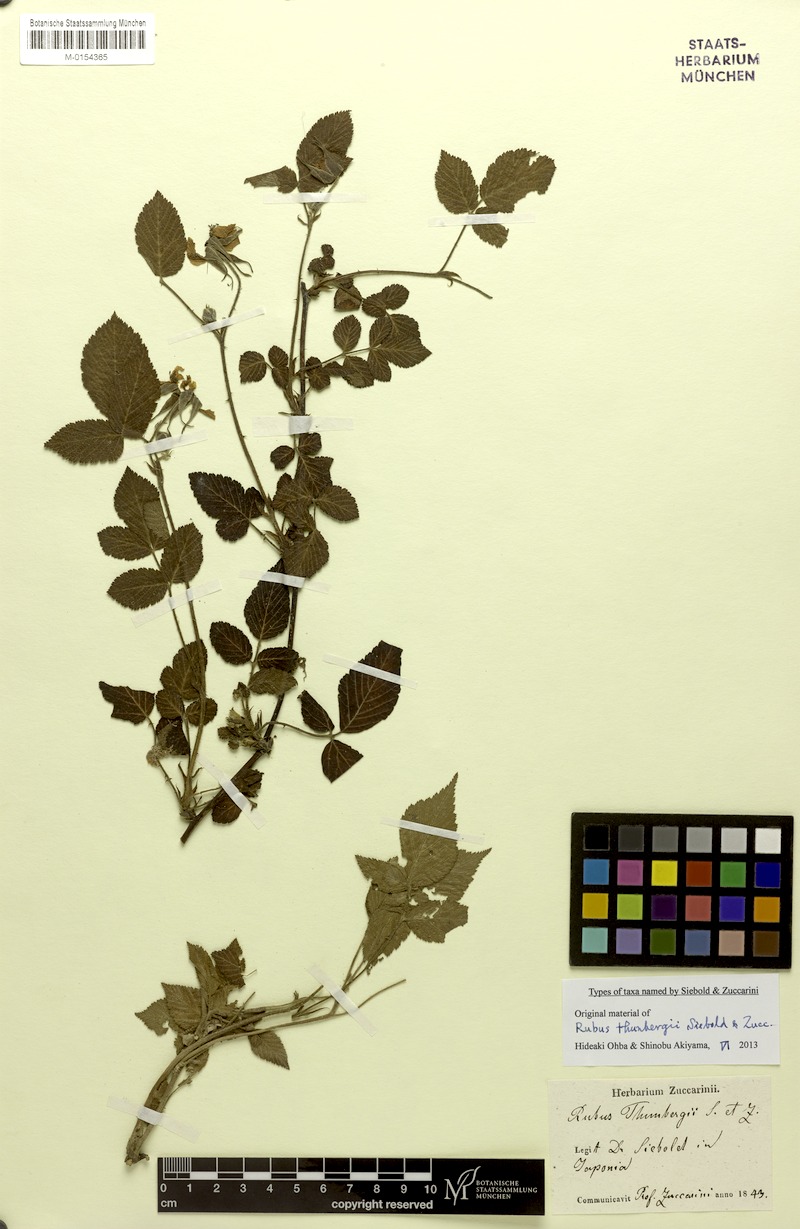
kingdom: Plantae
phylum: Tracheophyta
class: Magnoliopsida
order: Rosales
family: Rosaceae
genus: Rubus
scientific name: Rubus hirsutus
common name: Hirsute raspberry
